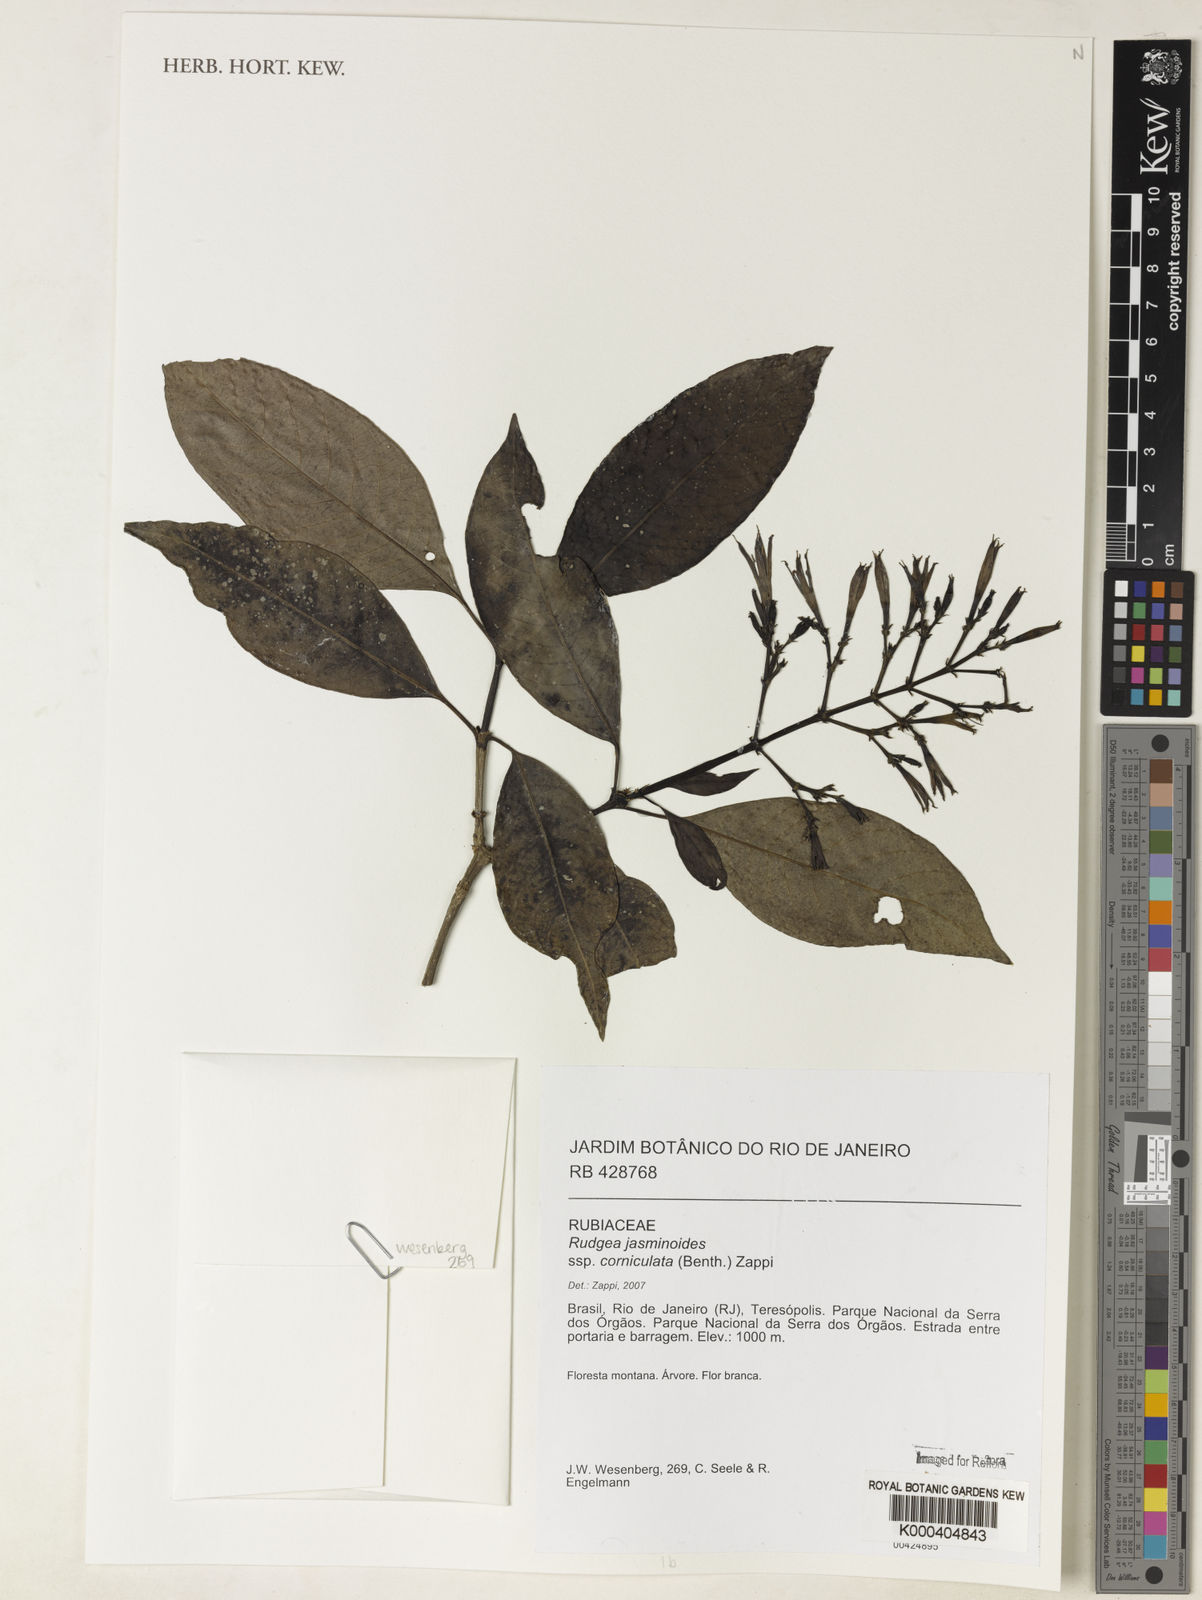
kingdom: Plantae
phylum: Tracheophyta
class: Magnoliopsida
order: Gentianales
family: Rubiaceae
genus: Rudgea
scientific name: Rudgea jasminoides
